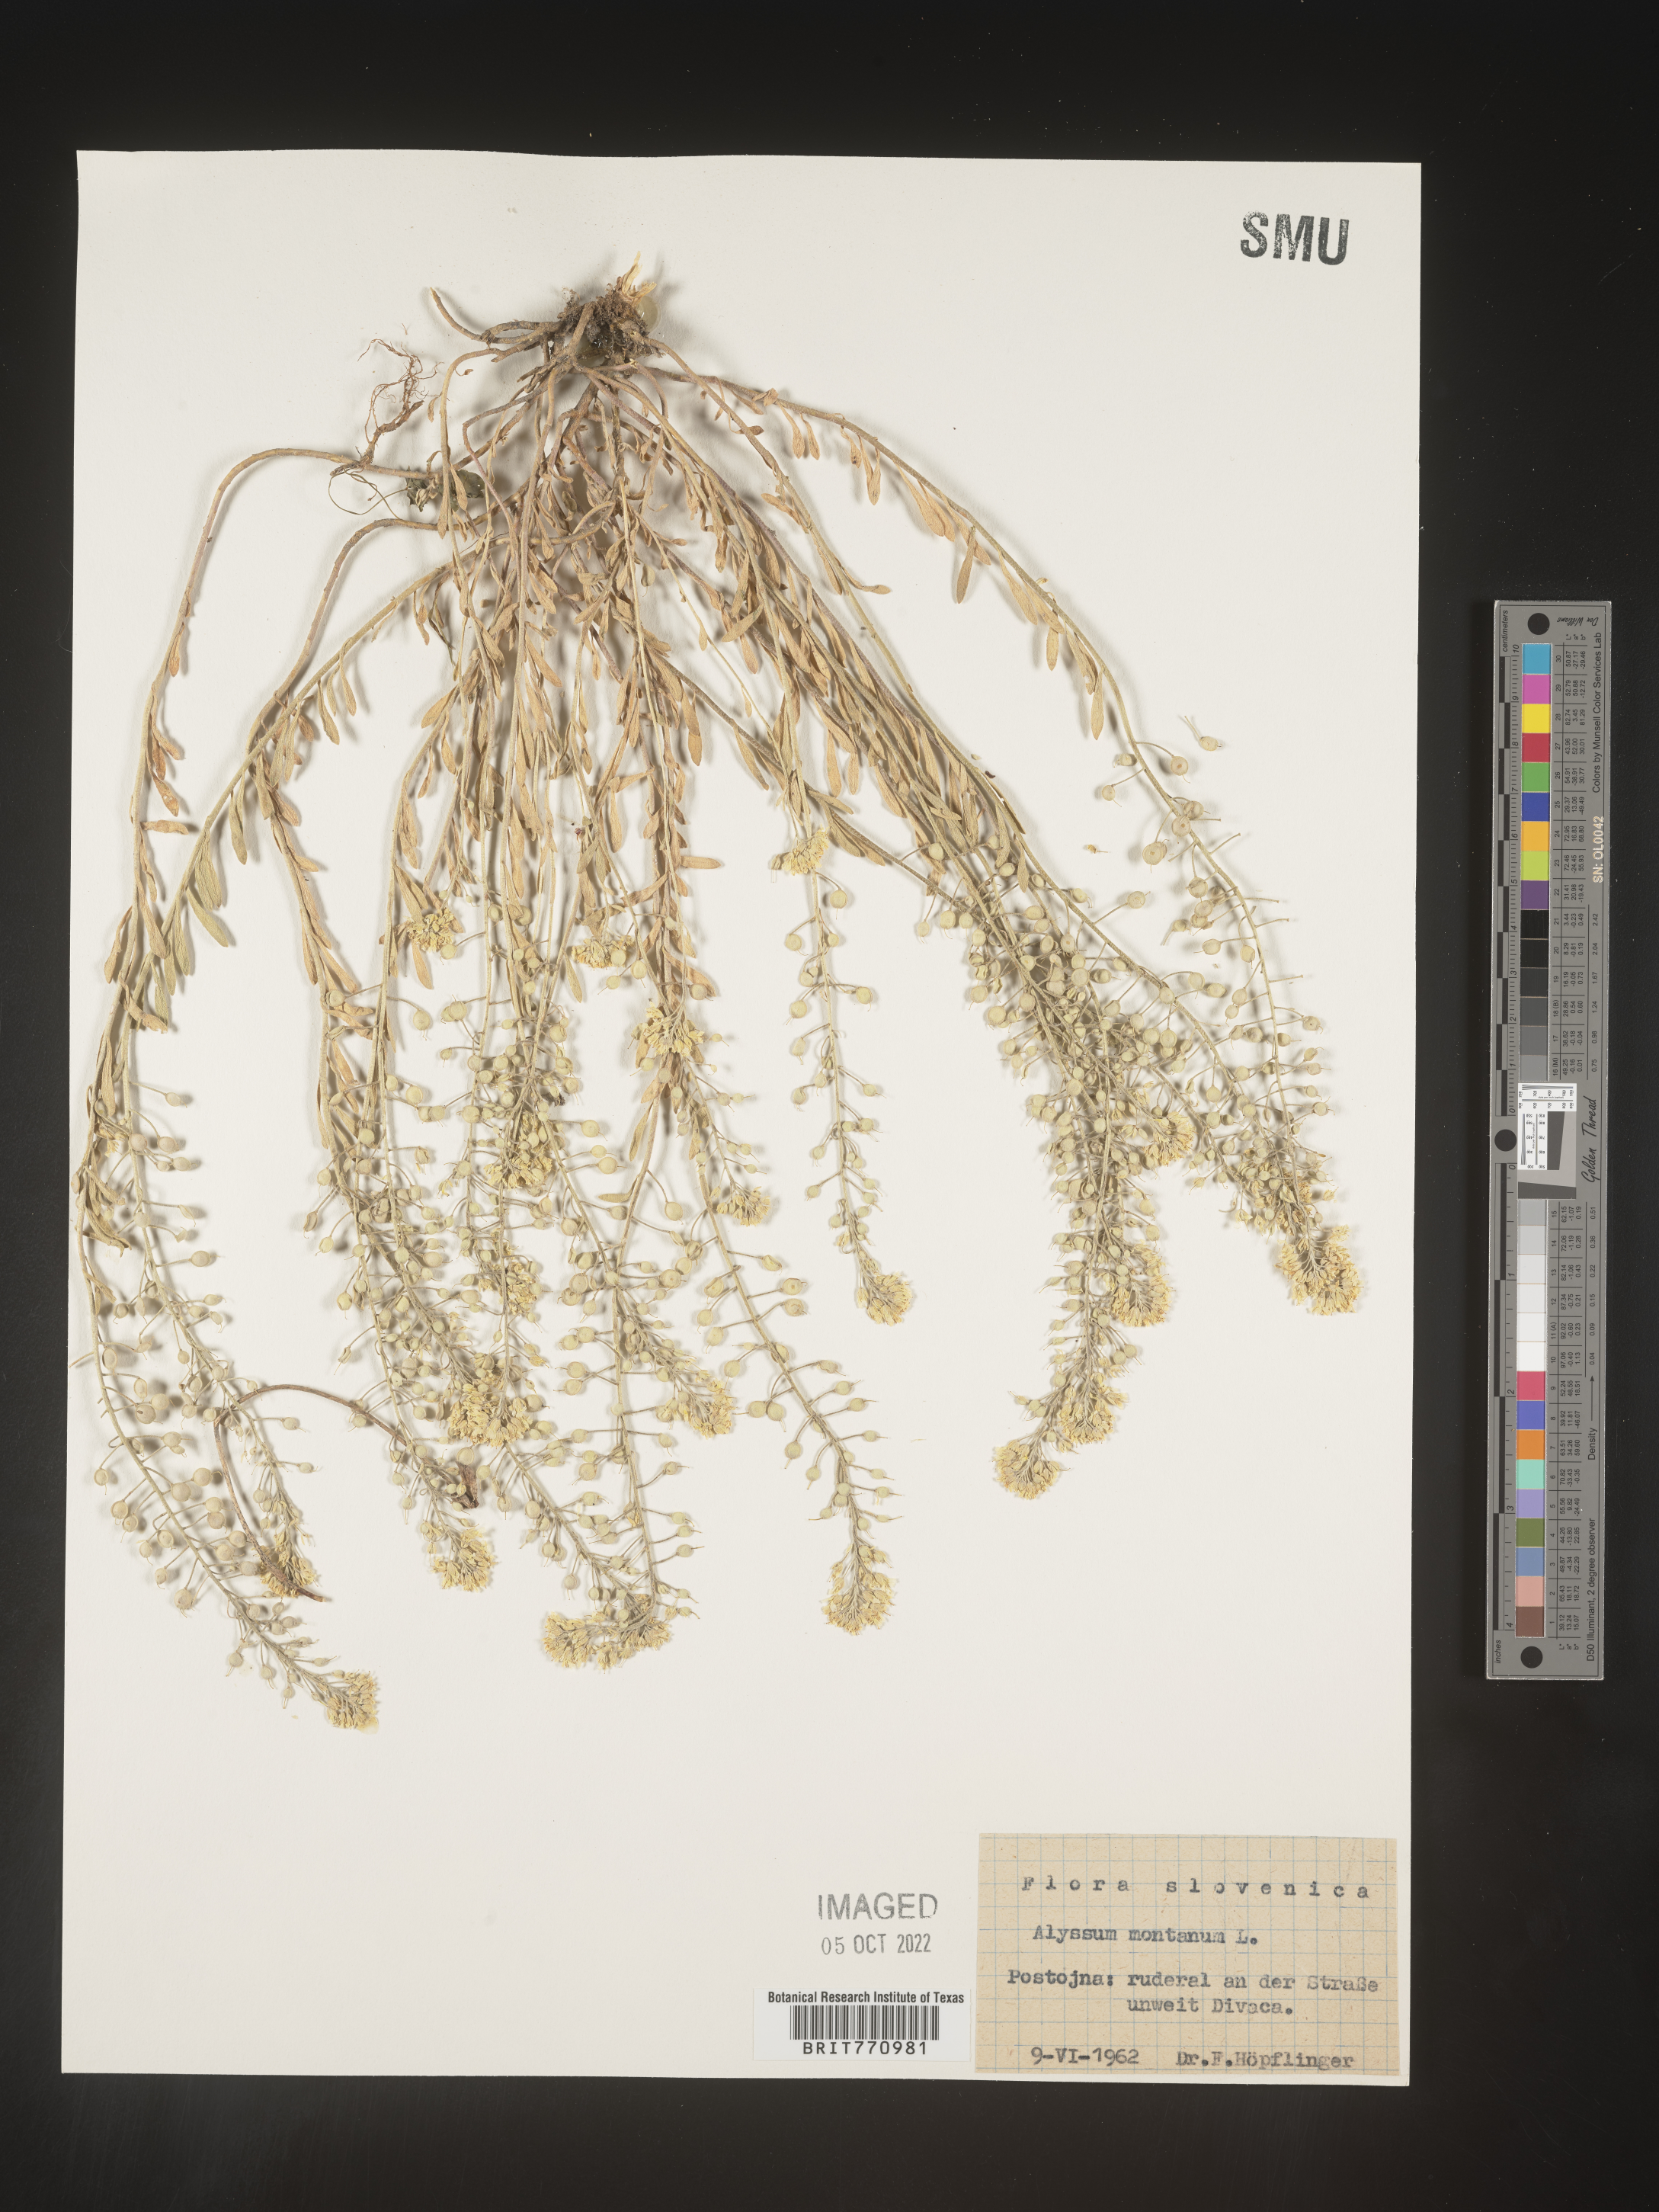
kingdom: Plantae
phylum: Tracheophyta
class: Magnoliopsida
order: Brassicales
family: Brassicaceae
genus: Alyssum
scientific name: Alyssum
